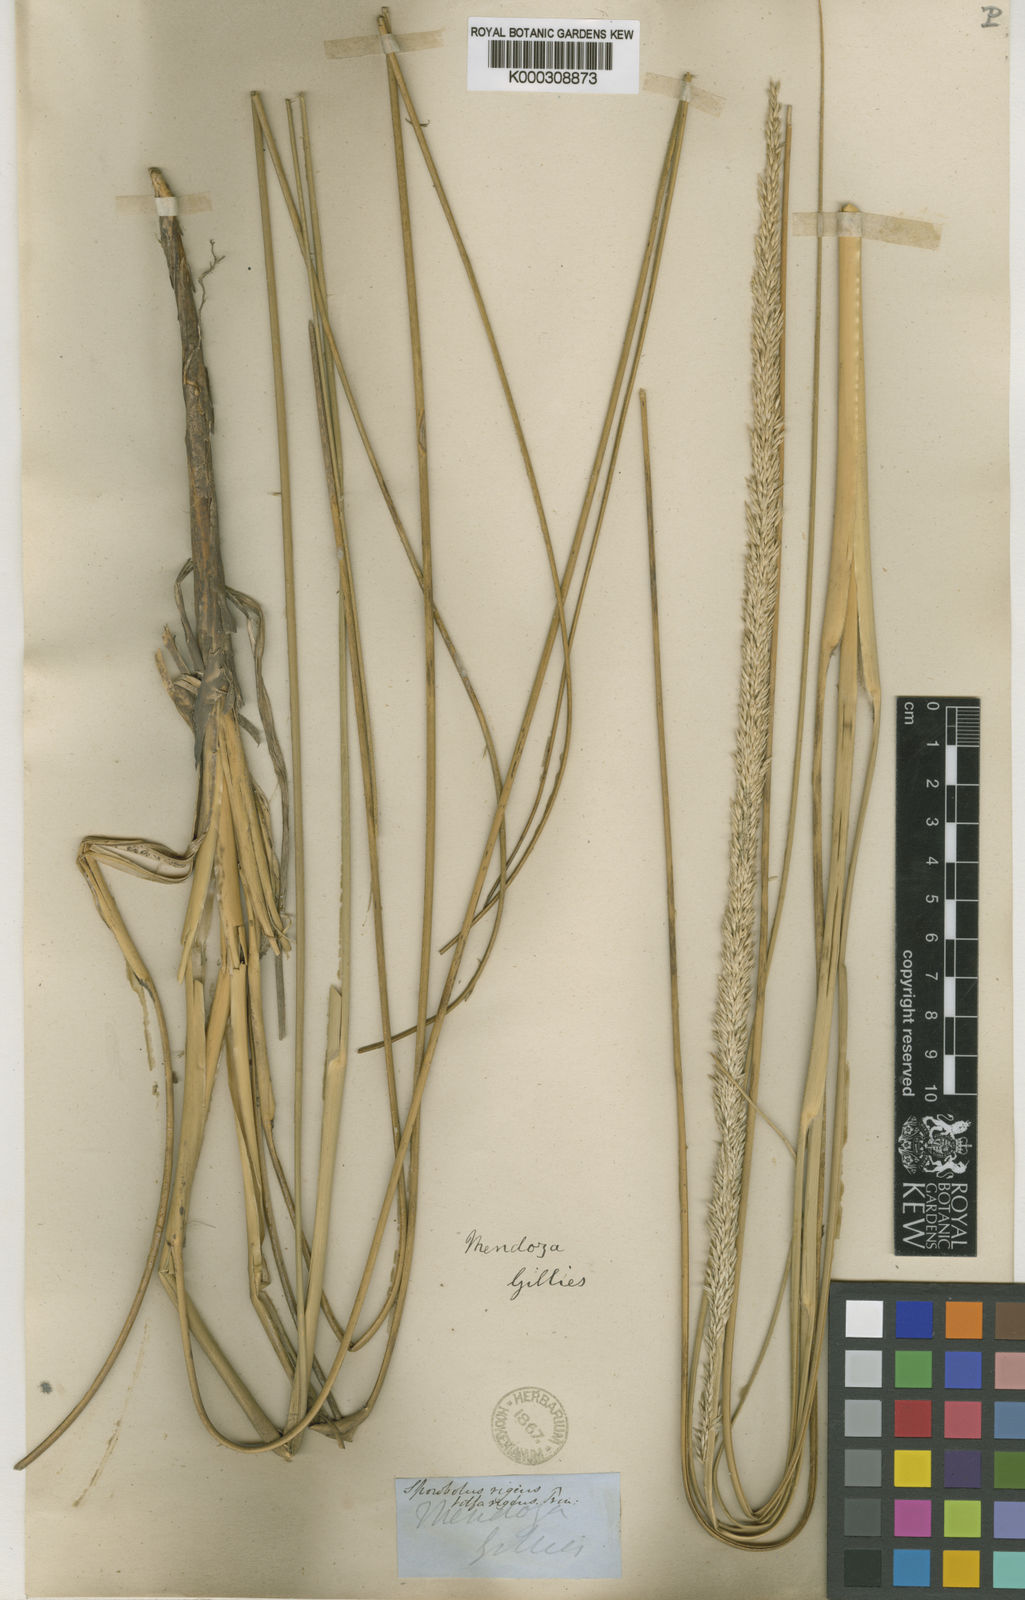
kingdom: Plantae
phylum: Tracheophyta
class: Liliopsida
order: Poales
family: Poaceae
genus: Sporobolus
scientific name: Sporobolus rigens
